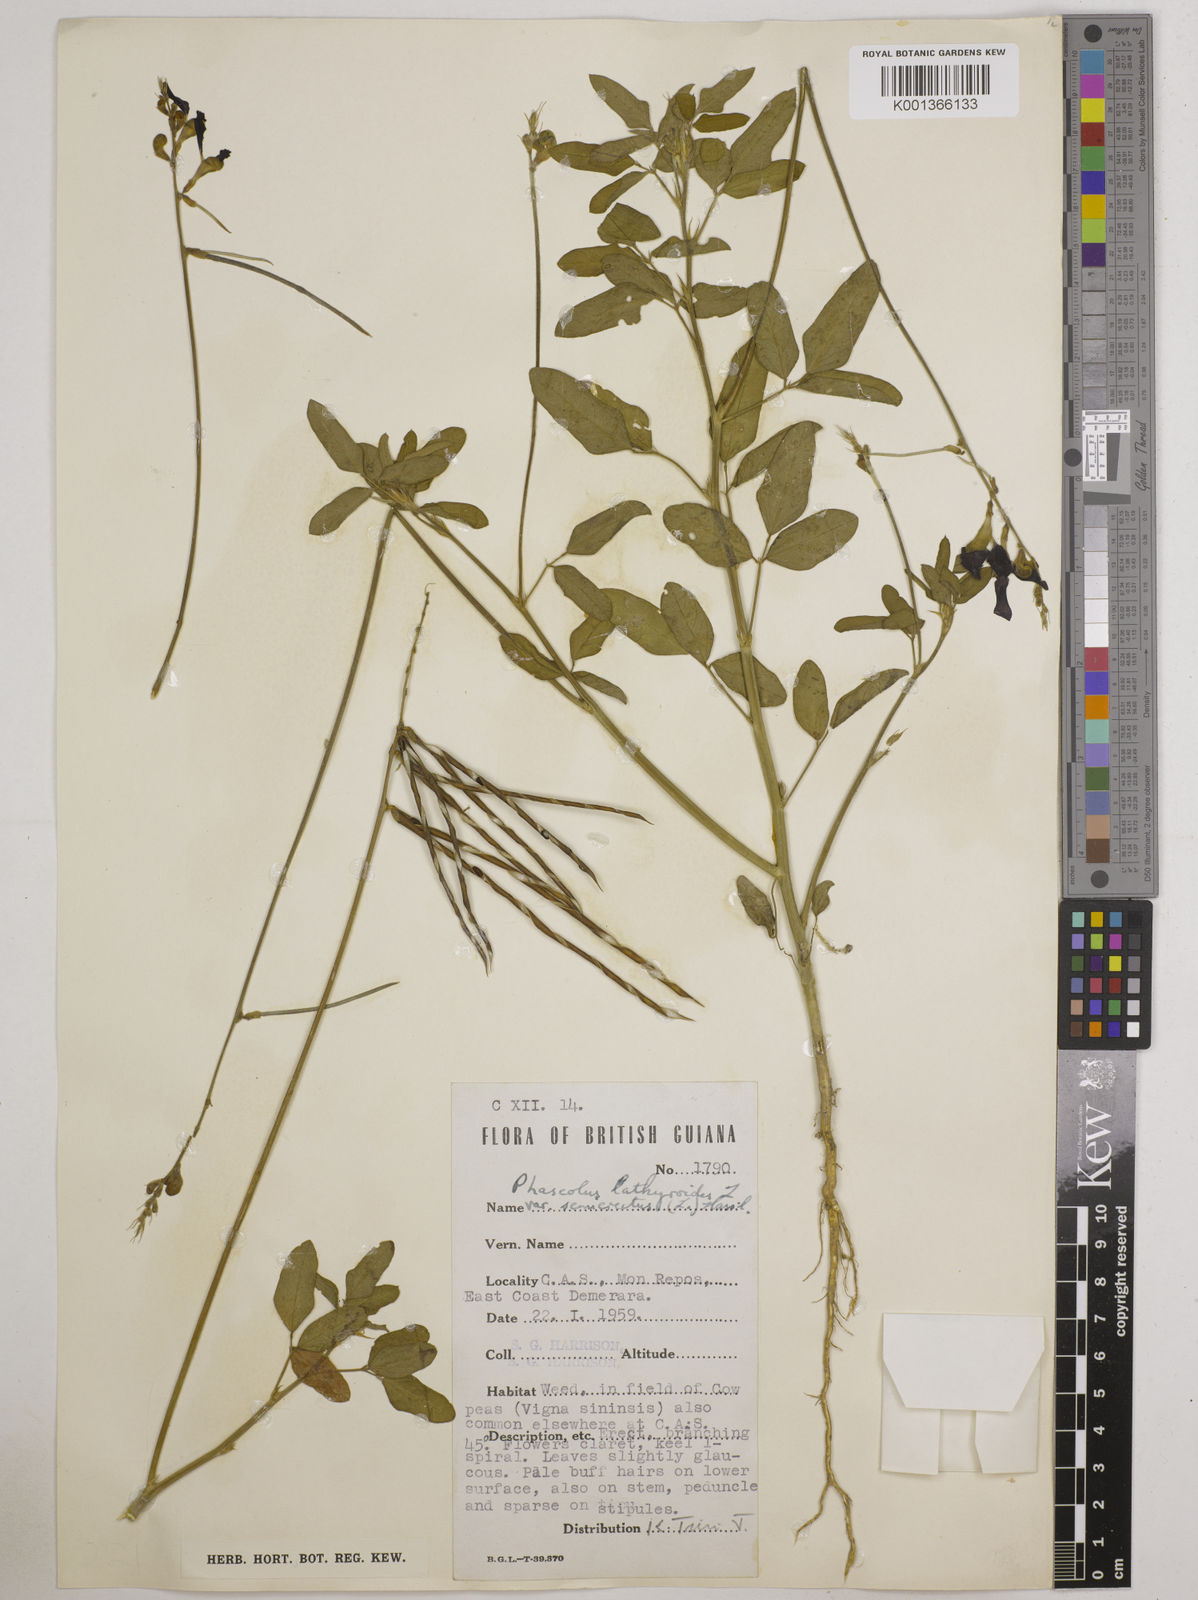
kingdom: Plantae
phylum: Tracheophyta
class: Magnoliopsida
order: Fabales
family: Fabaceae
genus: Macroptilium
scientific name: Macroptilium lathyroides
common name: Wild bushbean
